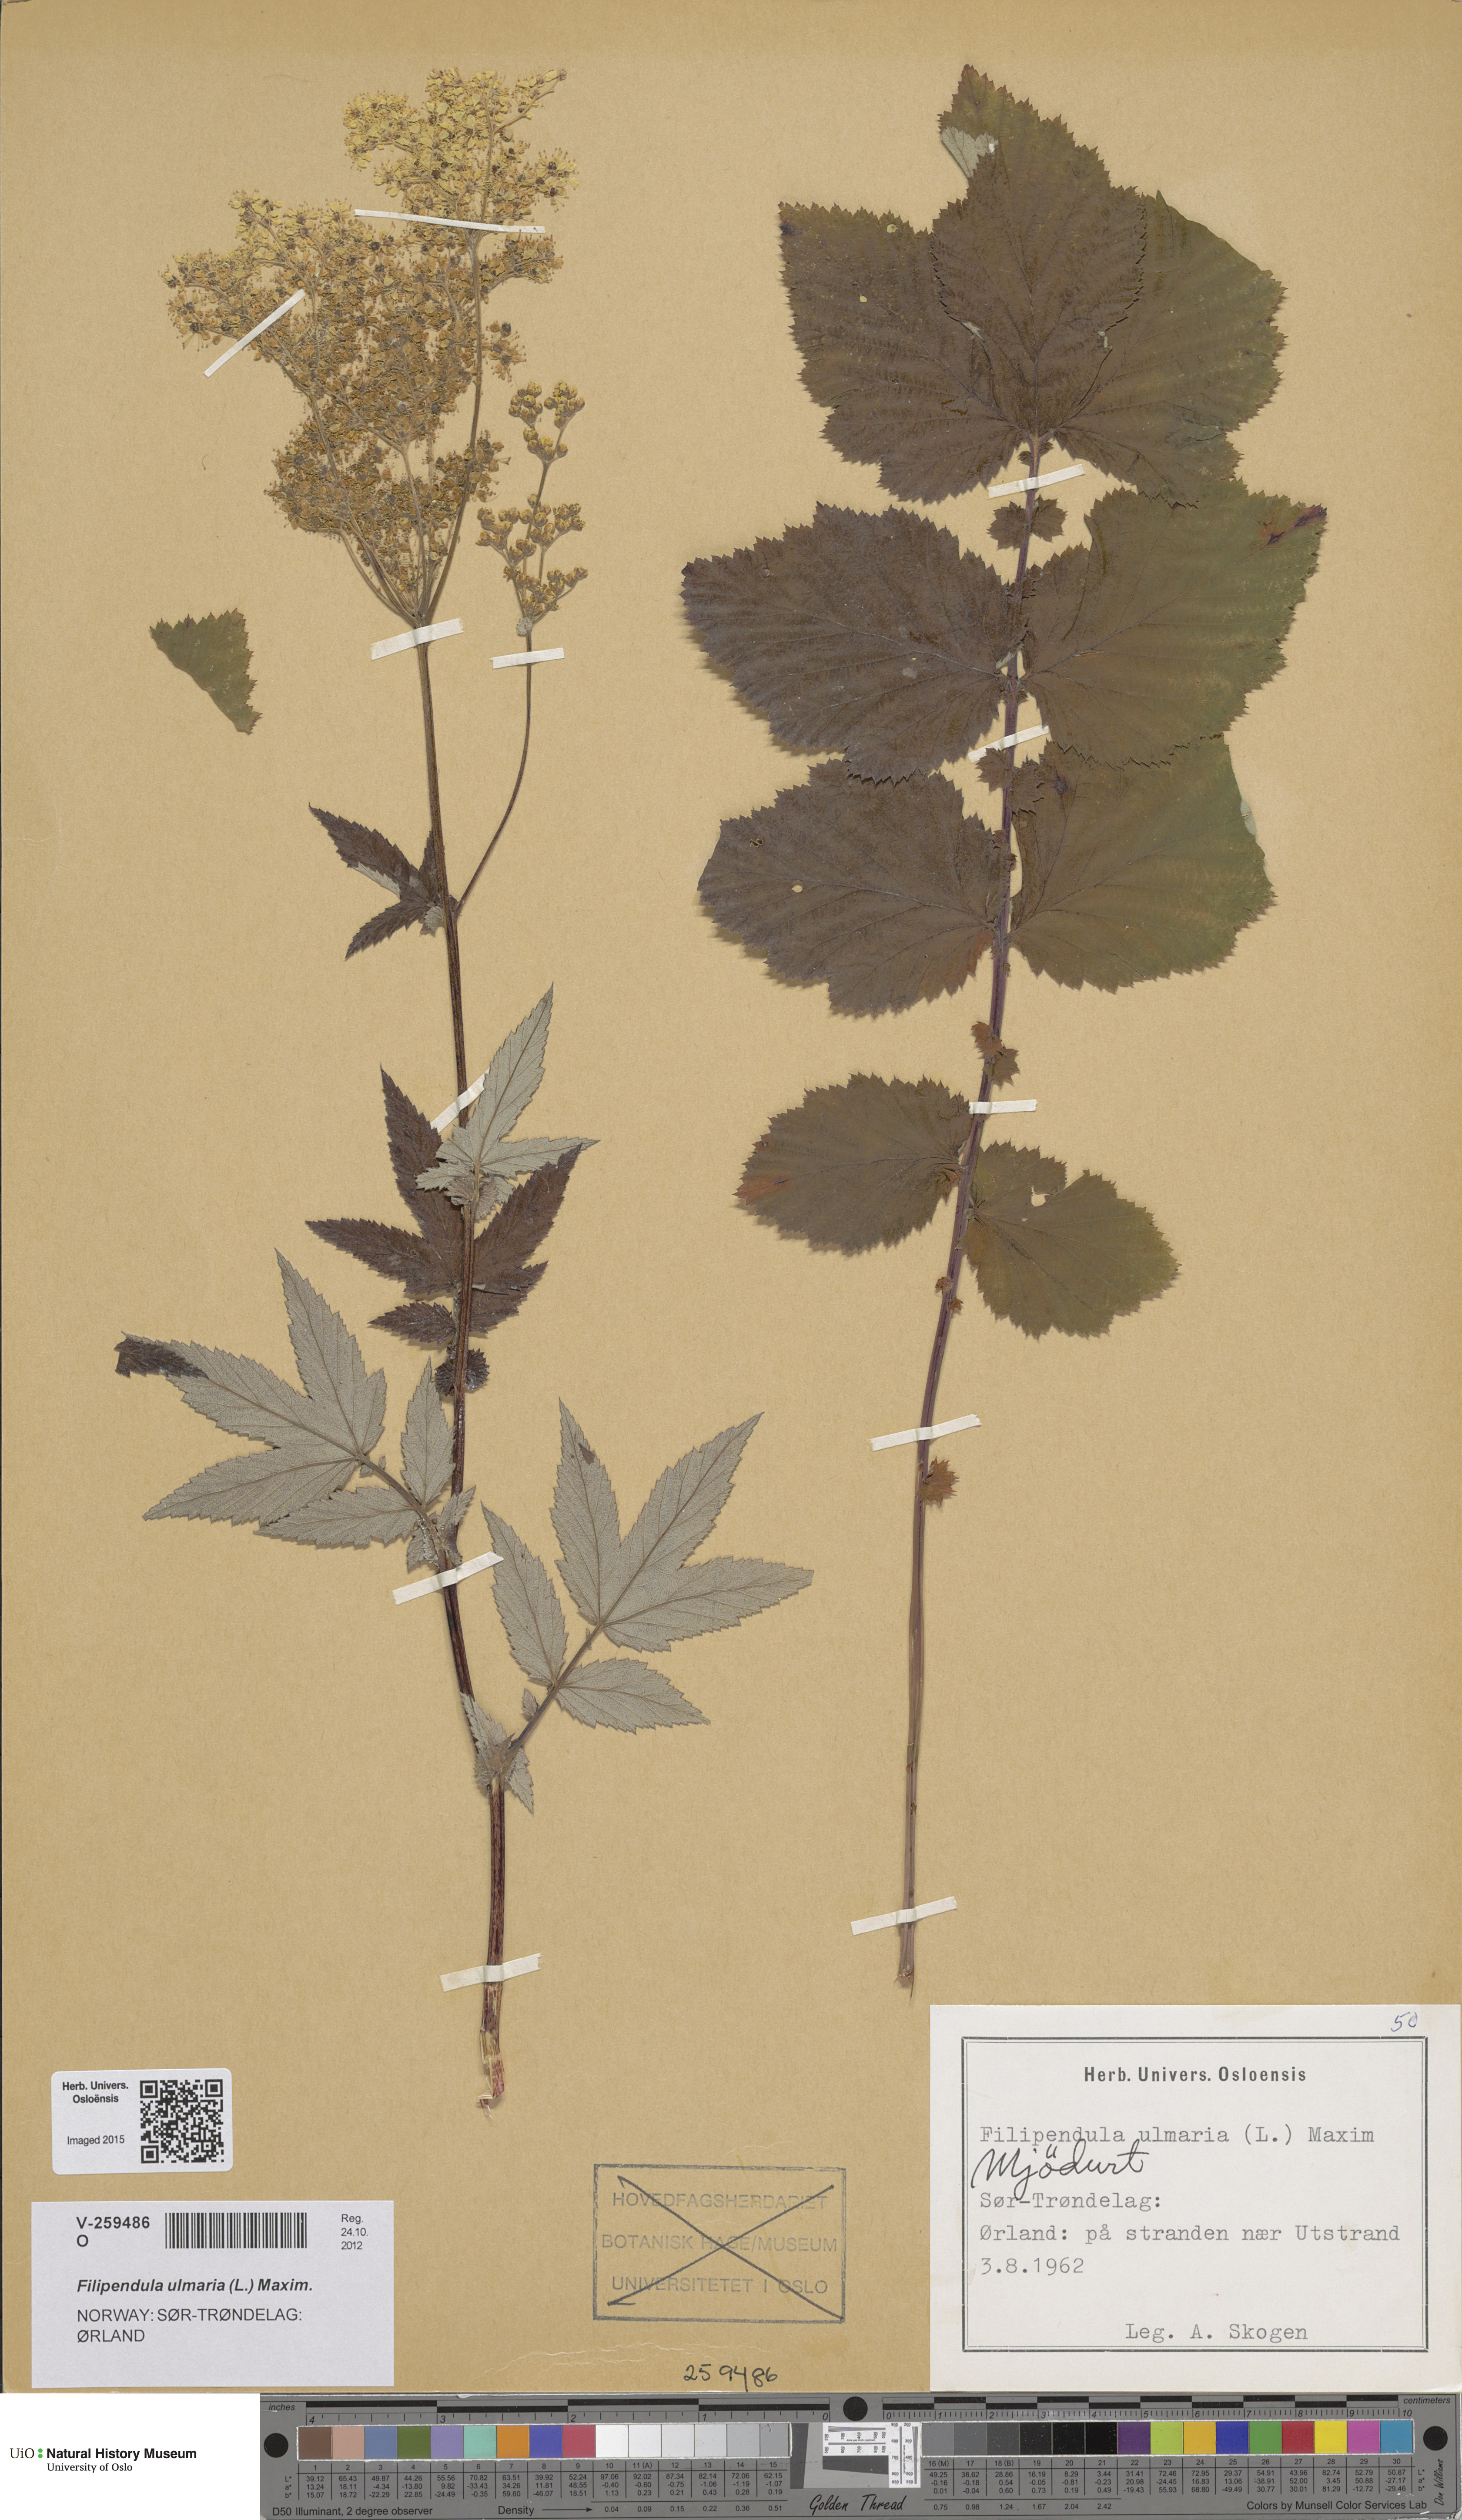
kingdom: Plantae
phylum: Tracheophyta
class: Magnoliopsida
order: Rosales
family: Rosaceae
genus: Filipendula
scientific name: Filipendula ulmaria
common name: Meadowsweet
